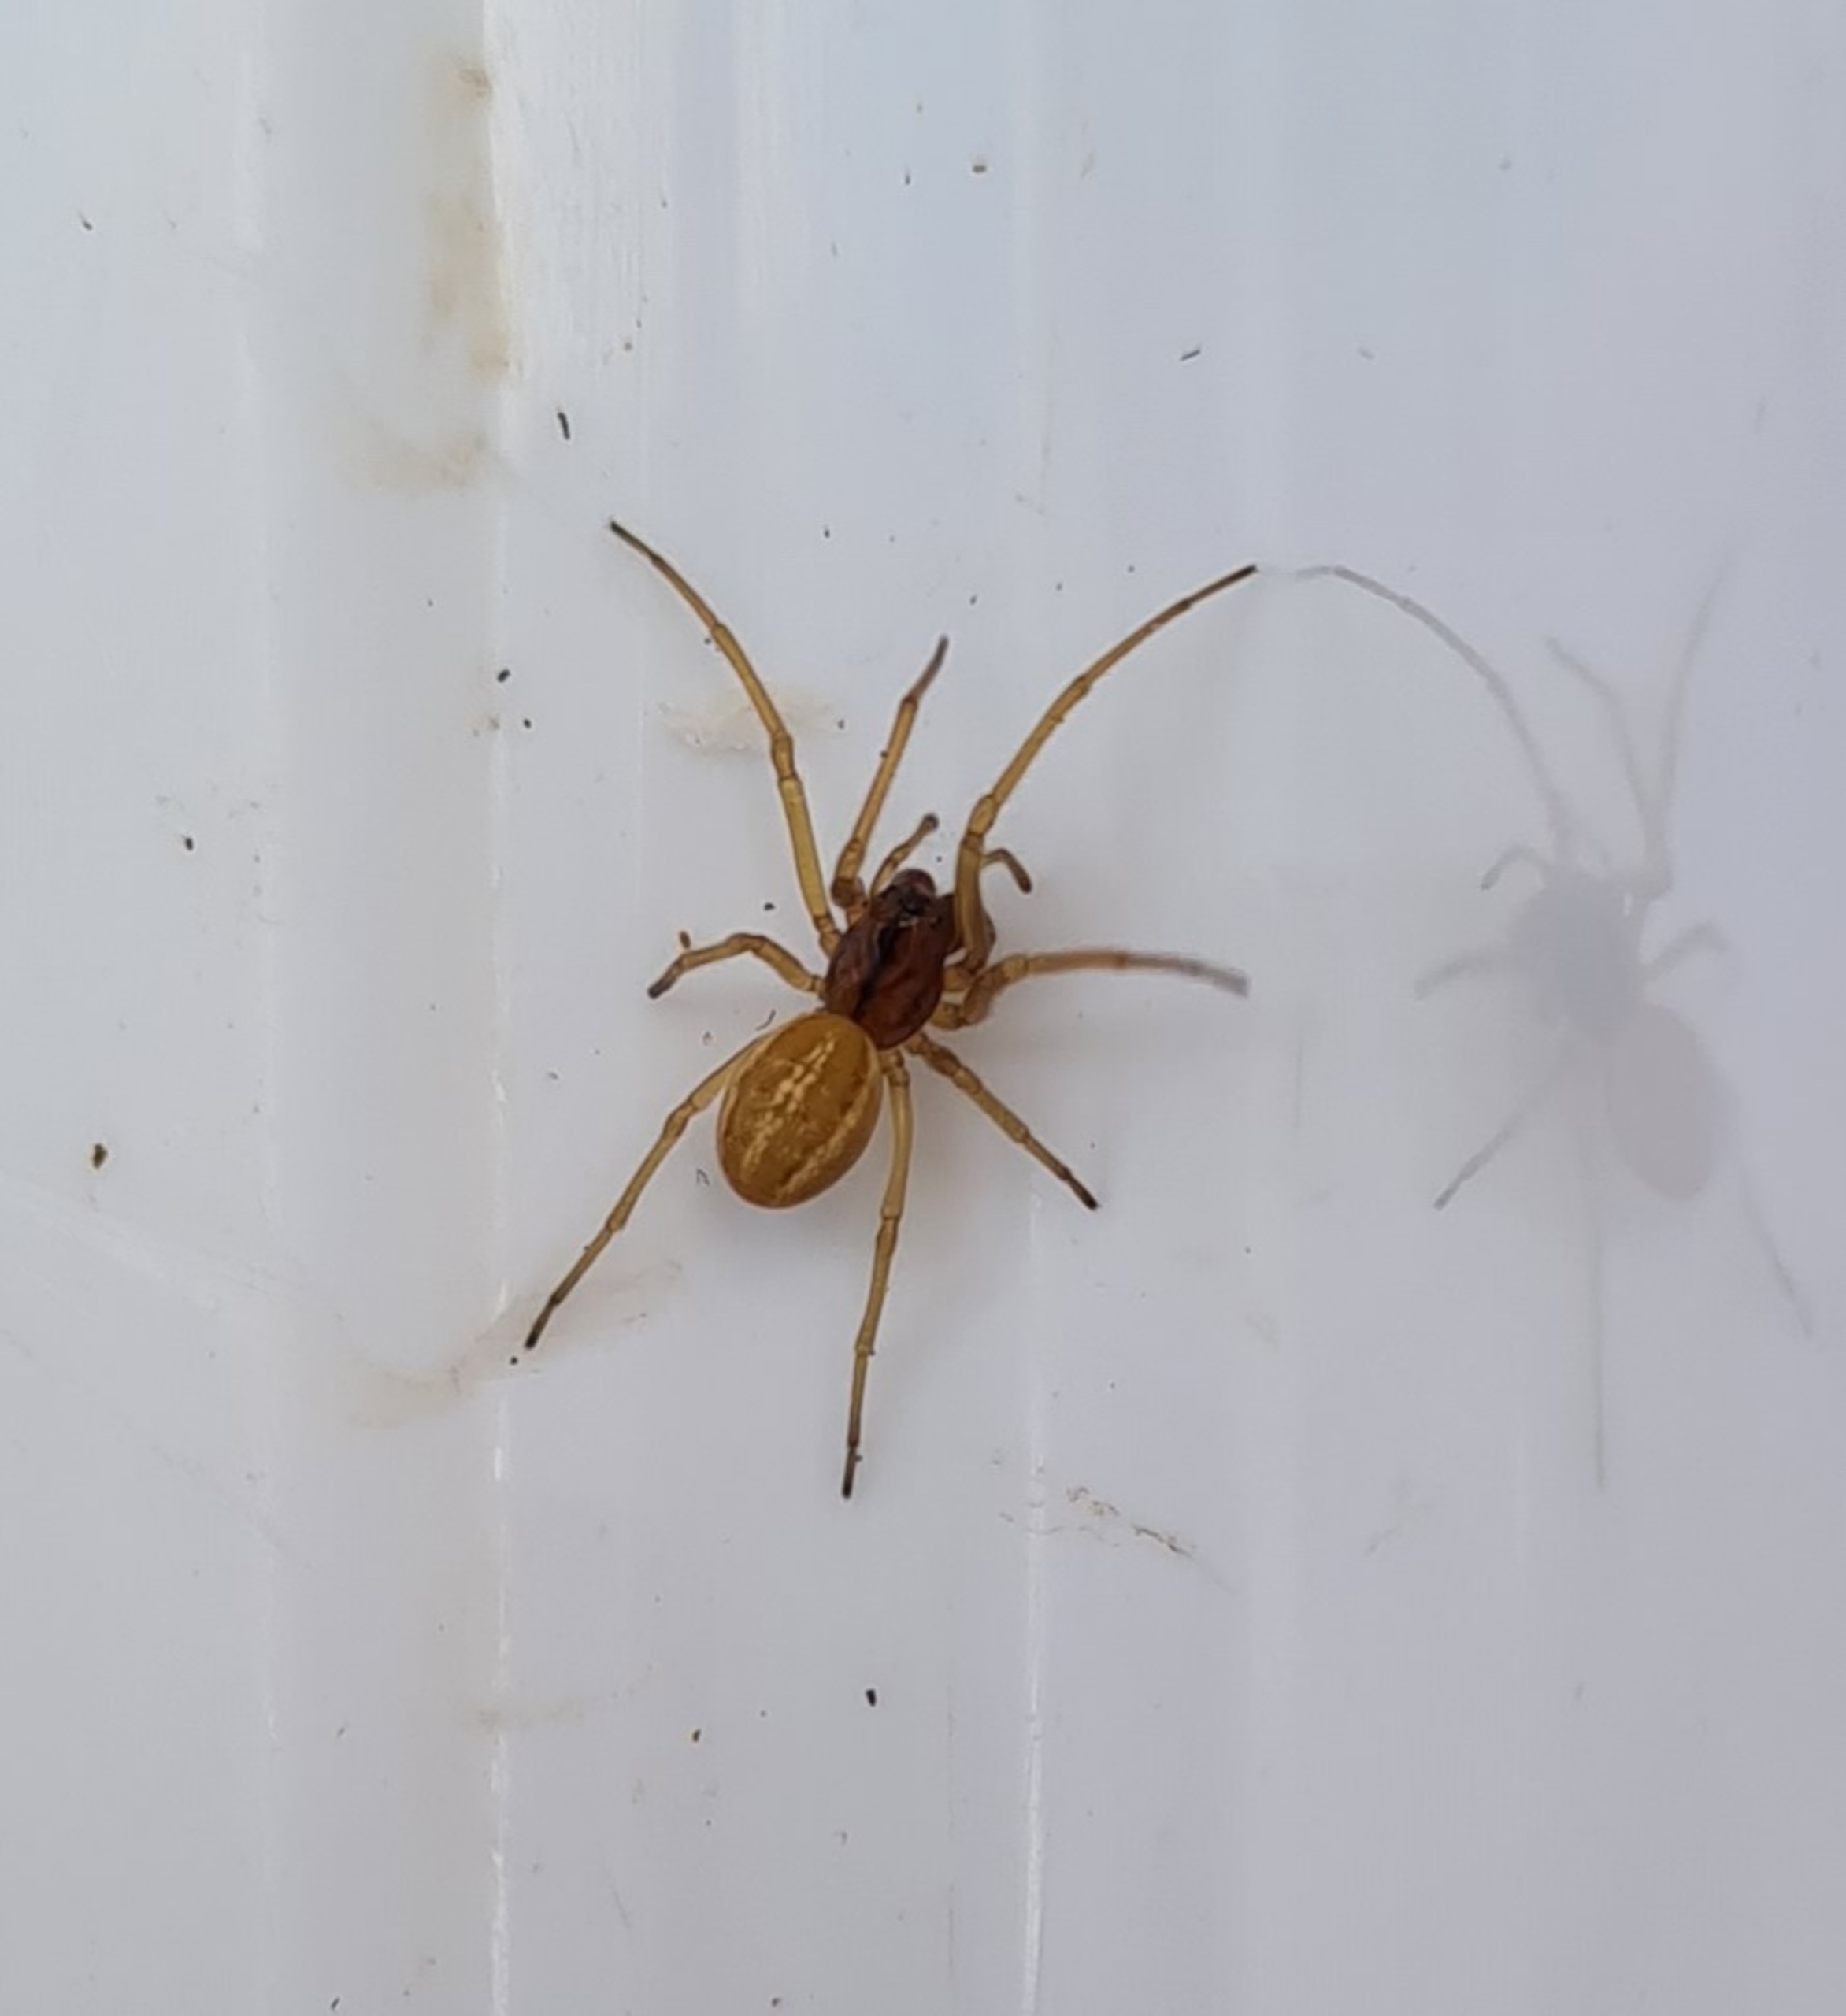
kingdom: Animalia
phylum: Arthropoda
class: Arachnida
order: Araneae
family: Tetragnathidae
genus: Pachygnatha
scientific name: Pachygnatha clercki
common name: Søtykkæbe
